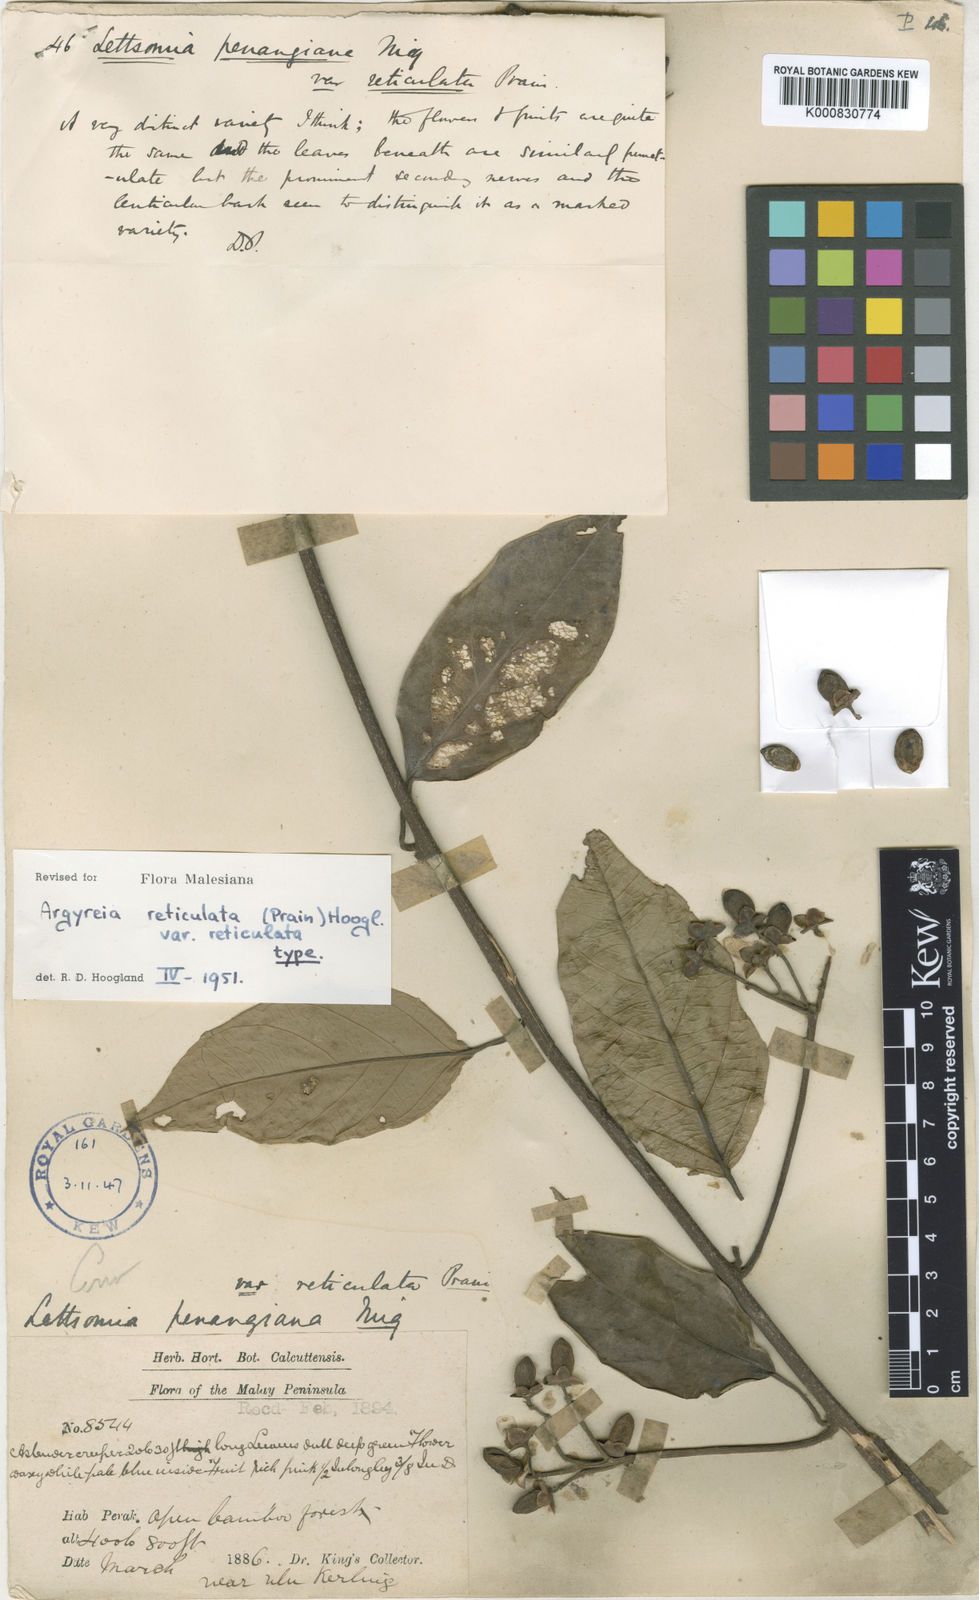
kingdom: Plantae
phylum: Tracheophyta
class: Magnoliopsida
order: Solanales
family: Convolvulaceae
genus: Argyreia
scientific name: Argyreia reticulata
